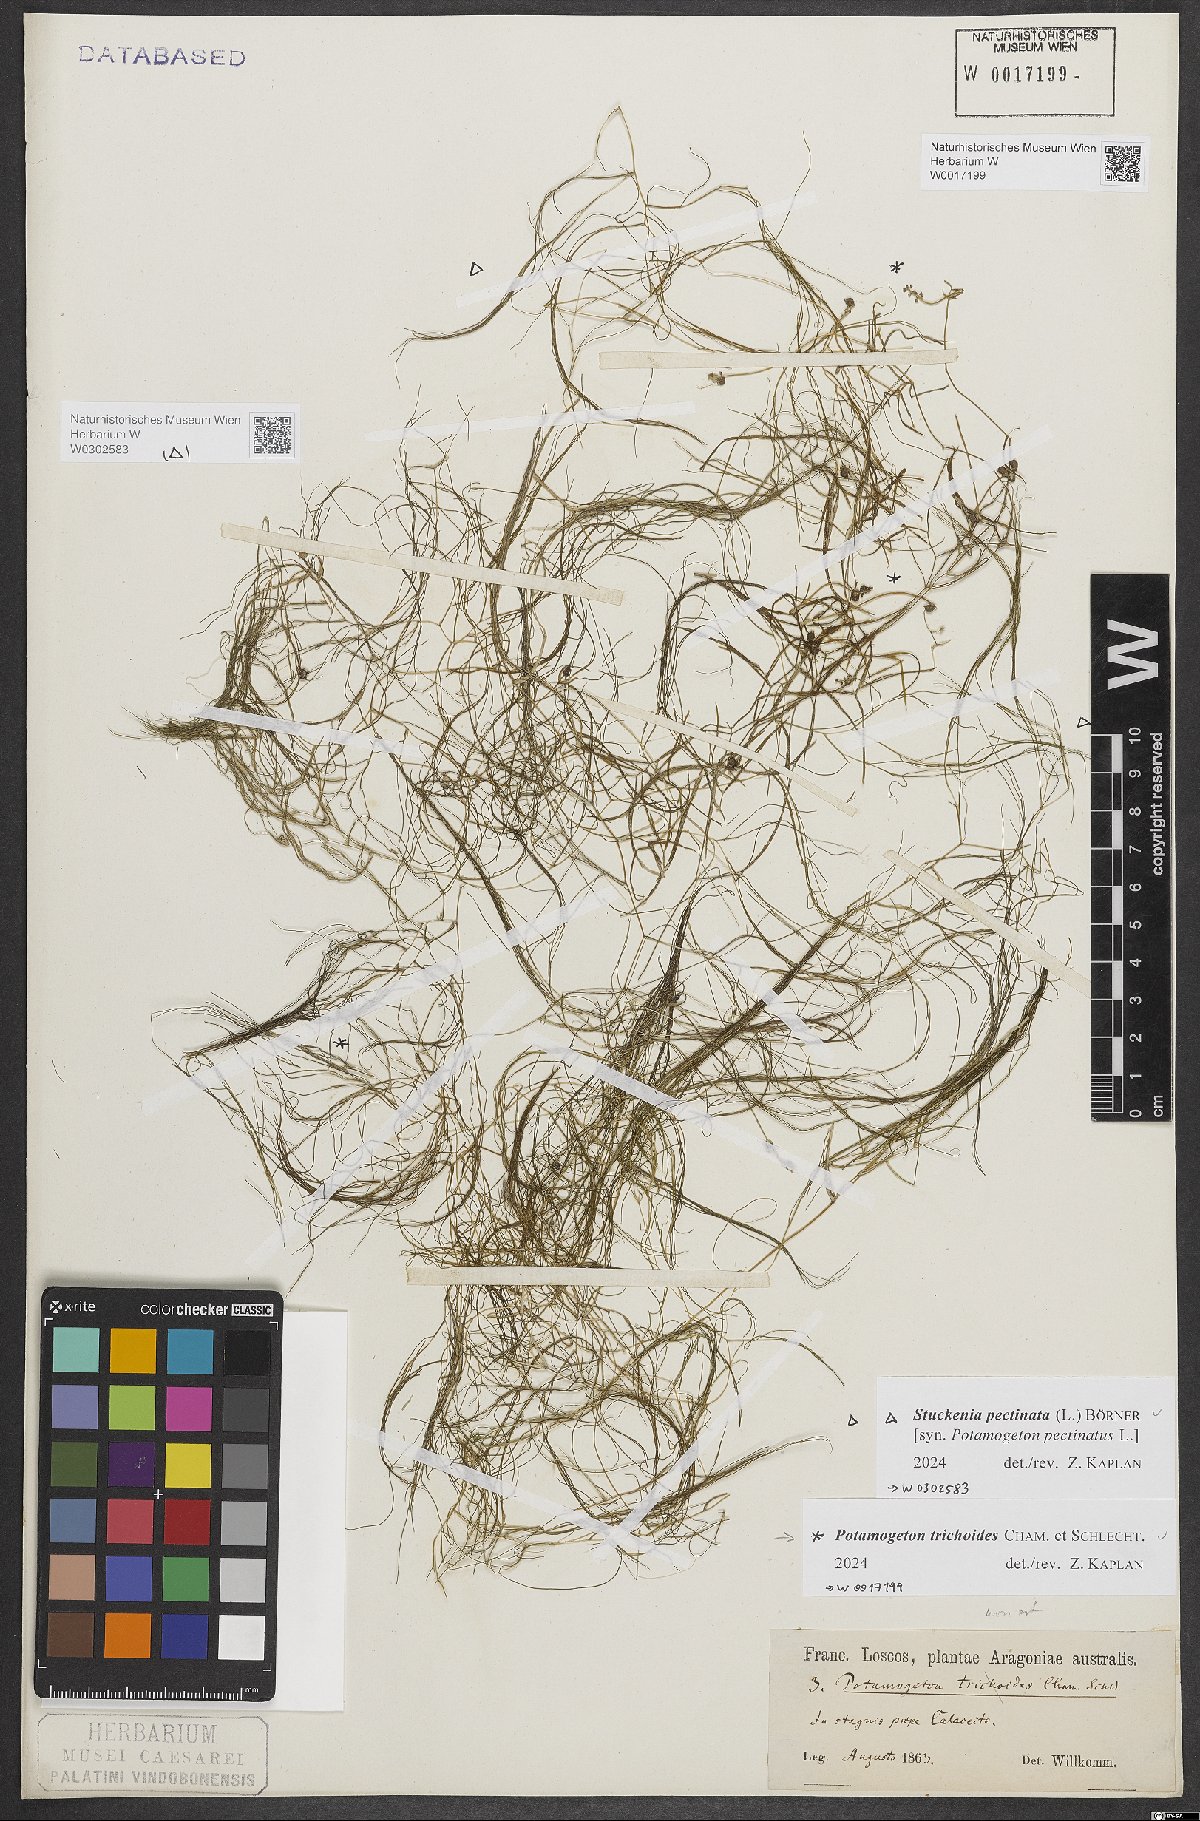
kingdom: Plantae
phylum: Tracheophyta
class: Liliopsida
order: Alismatales
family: Potamogetonaceae
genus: Potamogeton
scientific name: Potamogeton trichoides
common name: Hairlike pondweed
